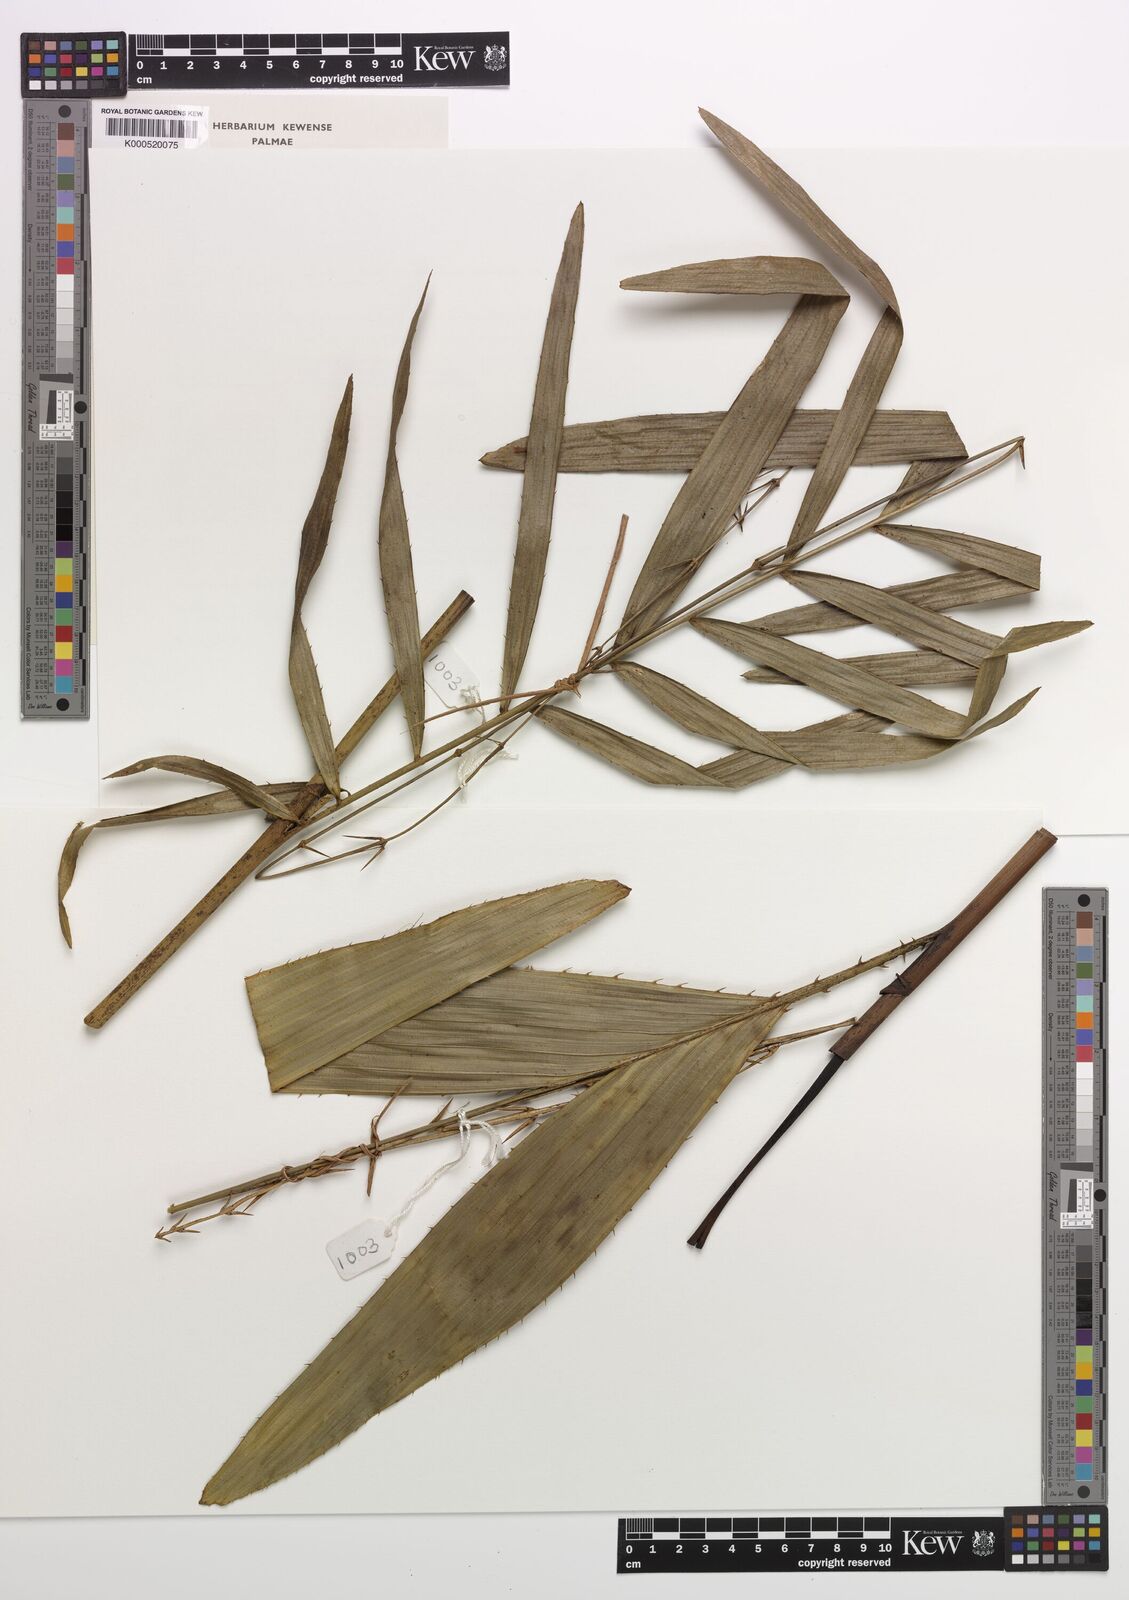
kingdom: Plantae
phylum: Tracheophyta
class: Liliopsida
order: Arecales
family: Arecaceae
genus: Eremospatha
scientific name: Eremospatha
